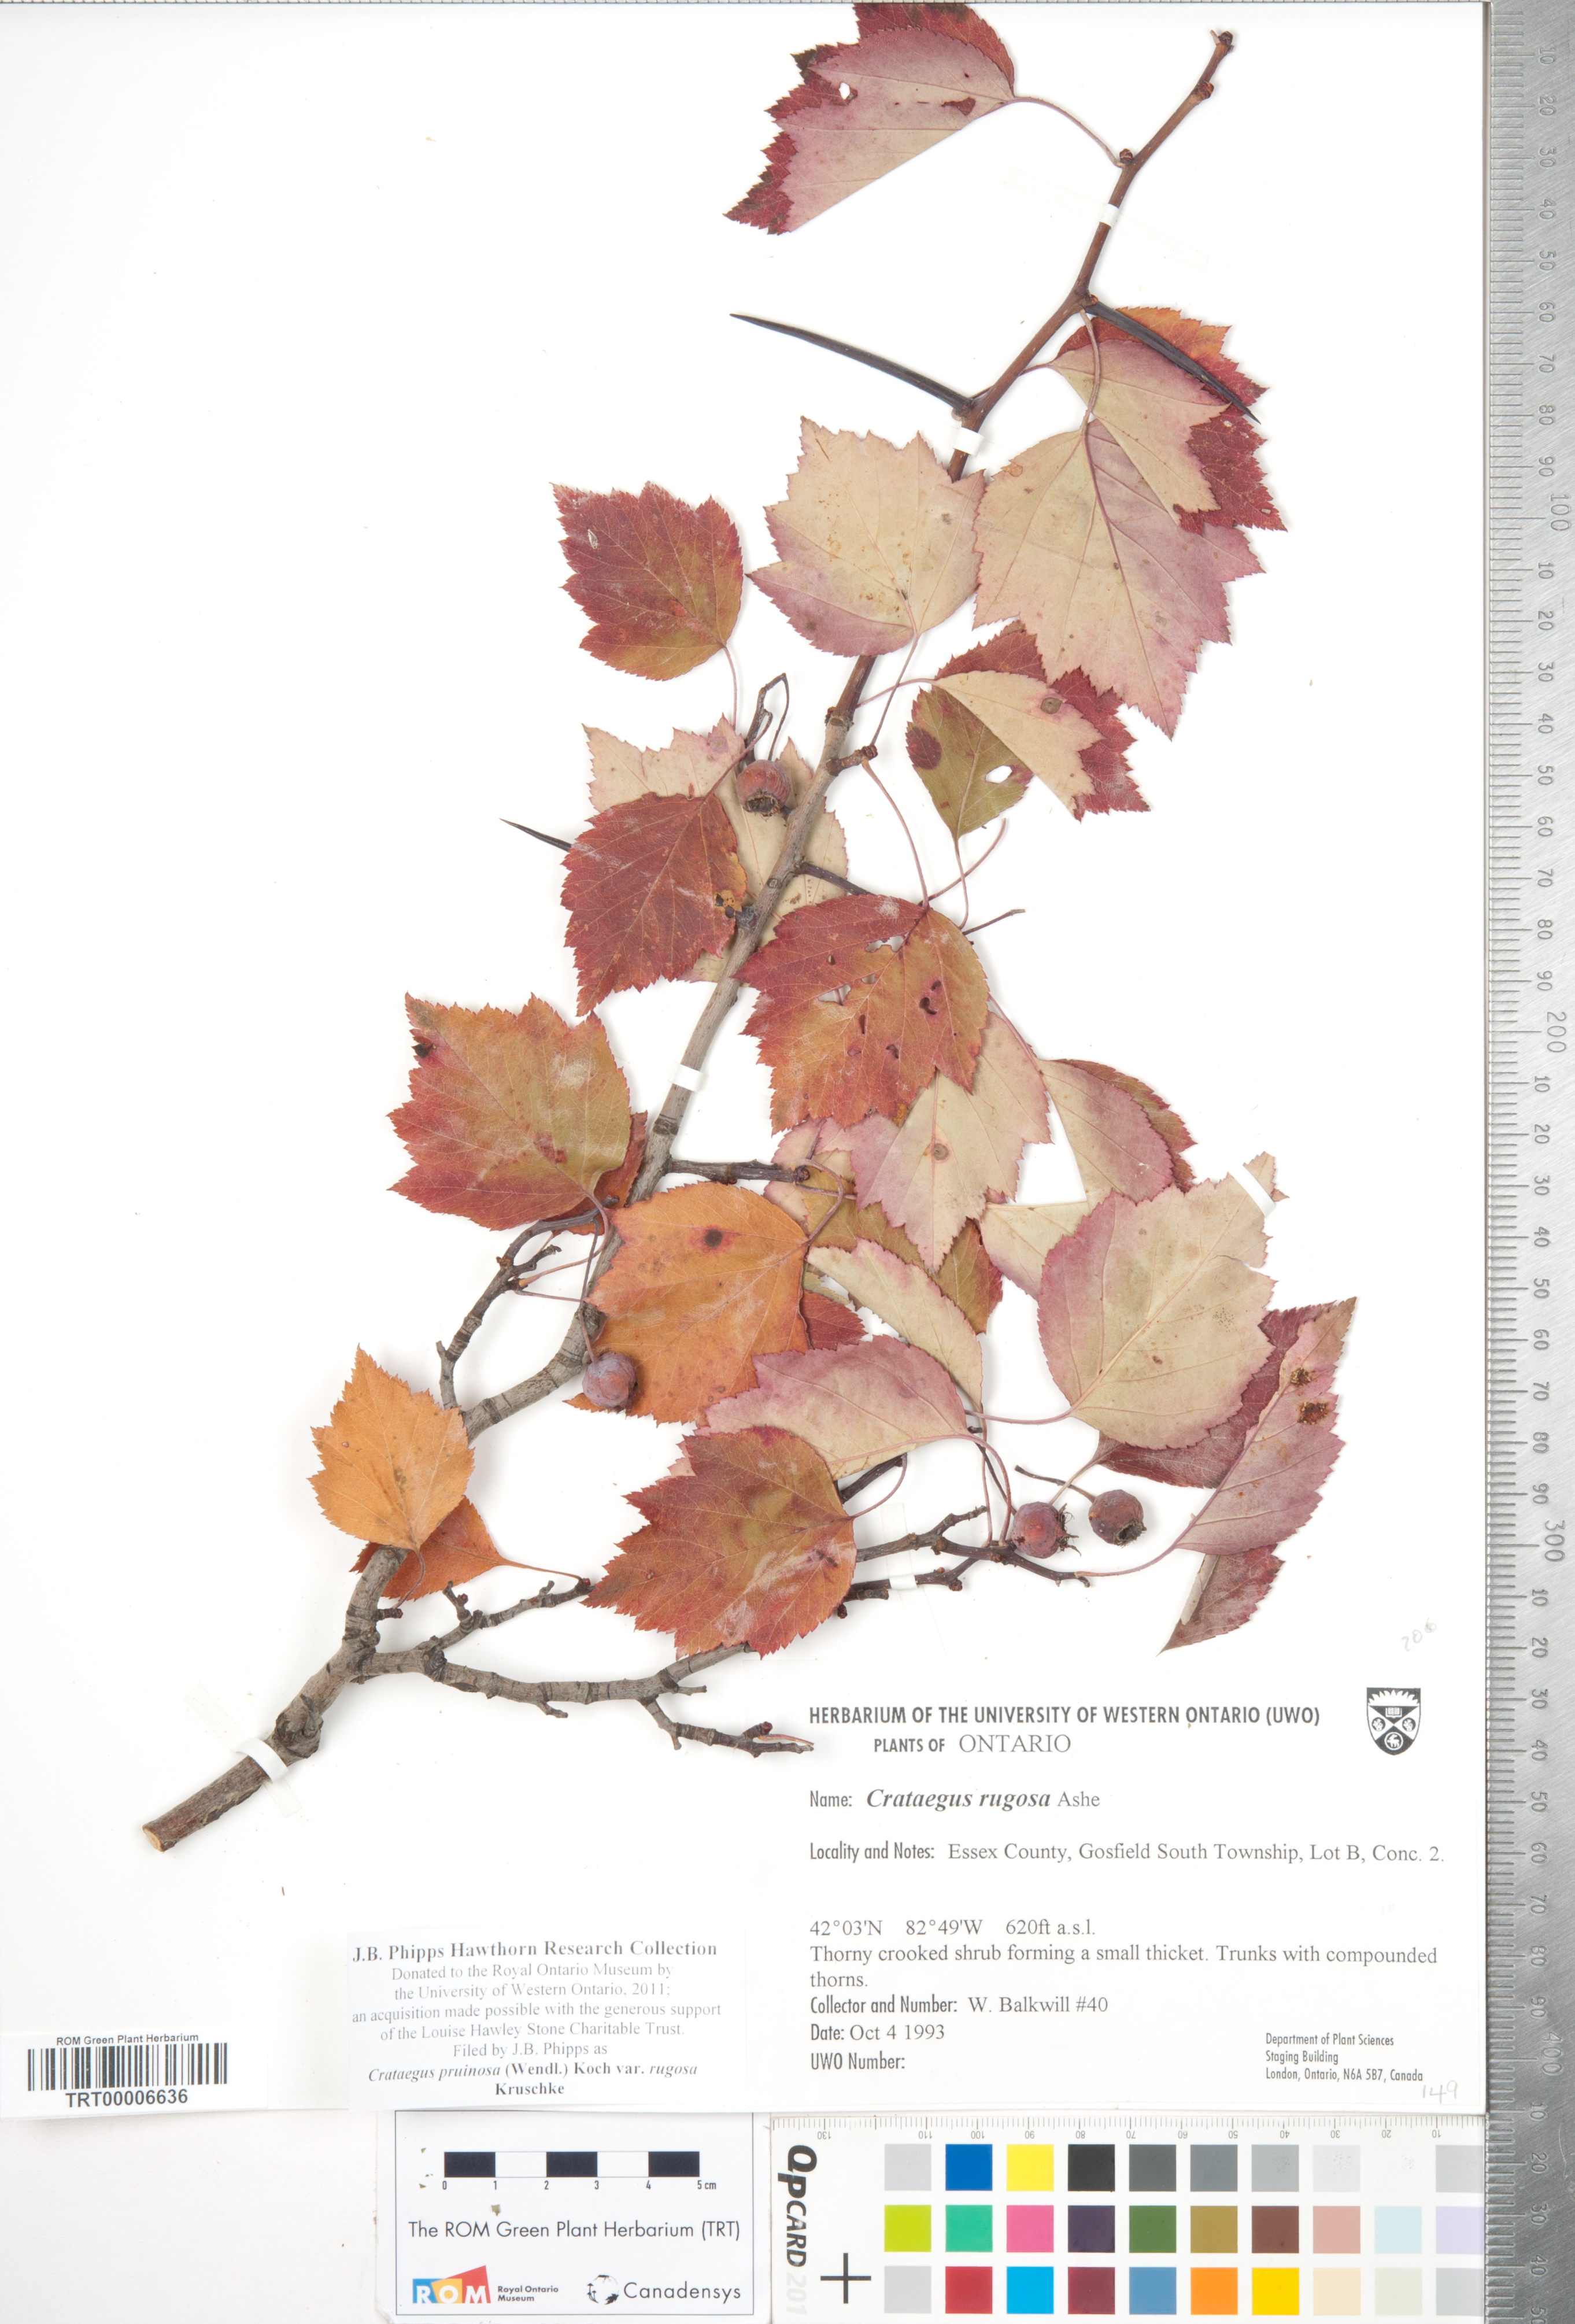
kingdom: Plantae
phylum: Tracheophyta
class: Magnoliopsida
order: Rosales
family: Rosaceae
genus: Crataegus
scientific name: Crataegus pruinosa
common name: Waxy-fruit hawthorn
